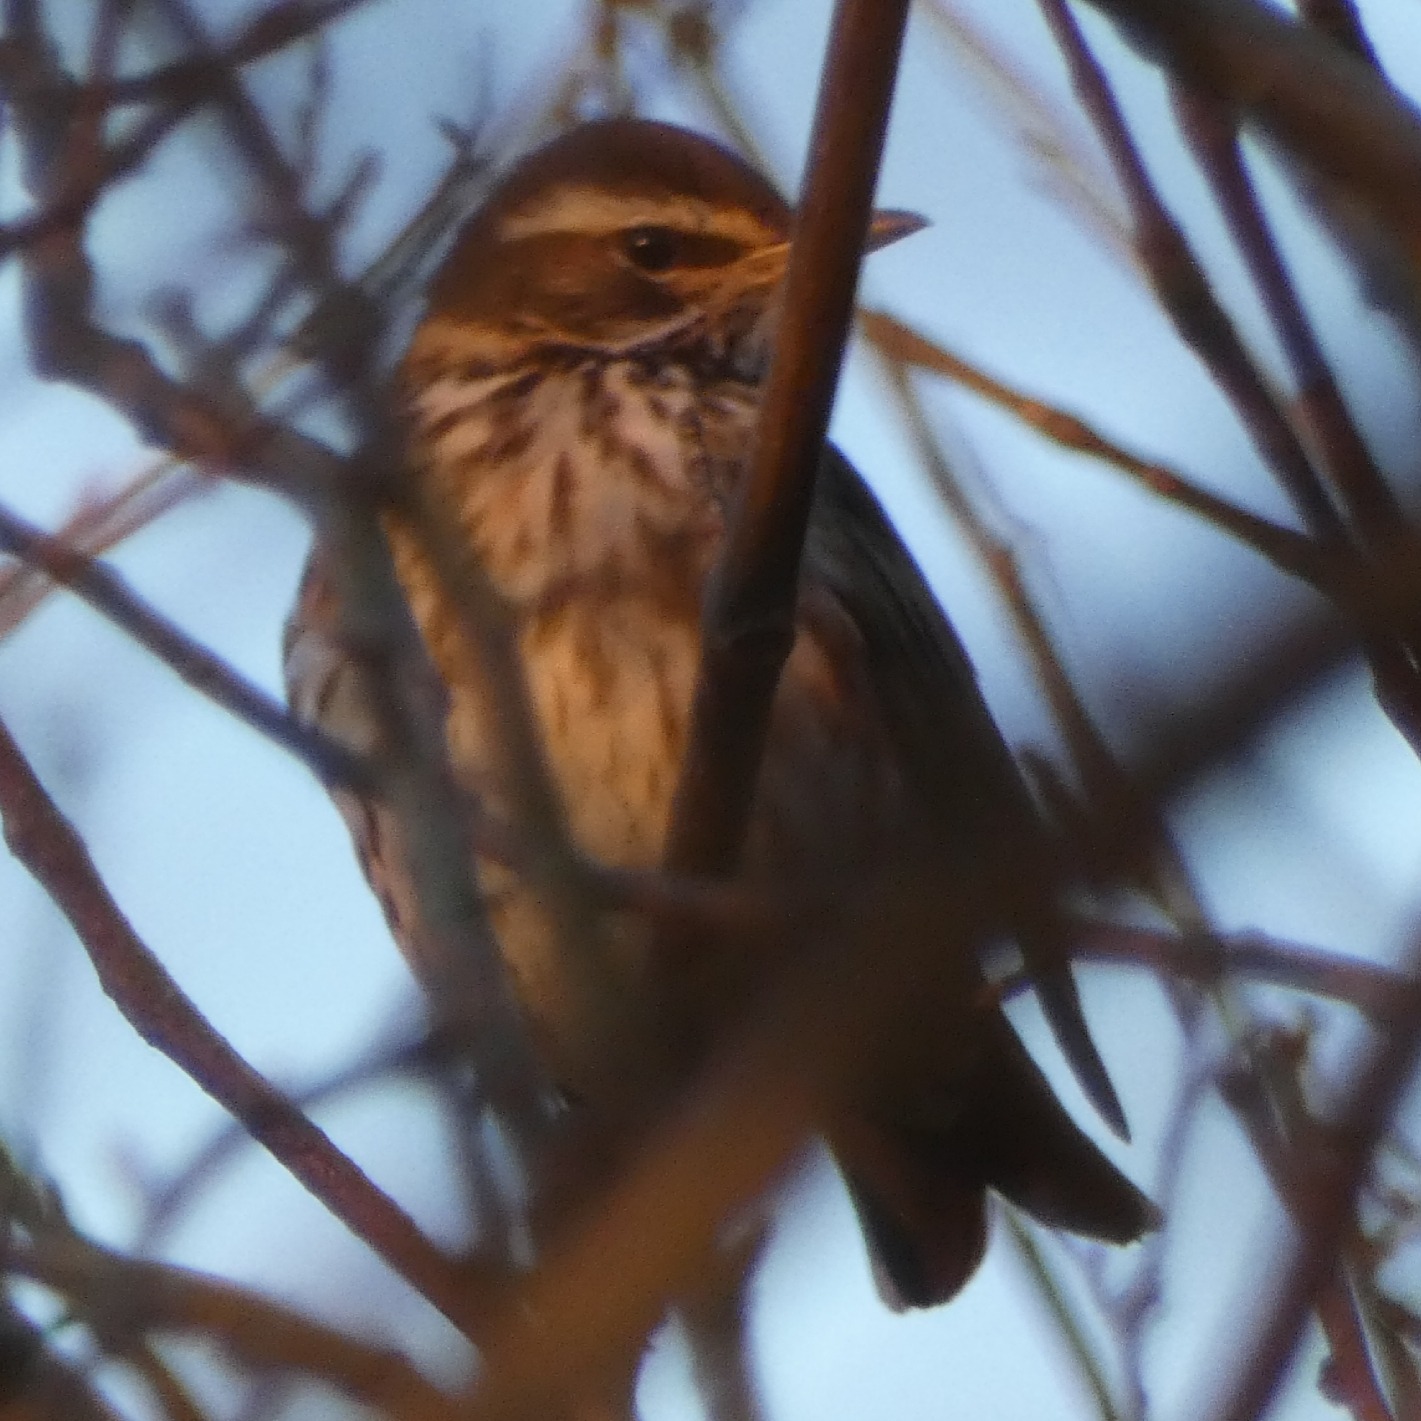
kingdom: Animalia
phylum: Chordata
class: Aves
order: Passeriformes
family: Turdidae
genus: Turdus
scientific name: Turdus iliacus
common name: Vindrossel
